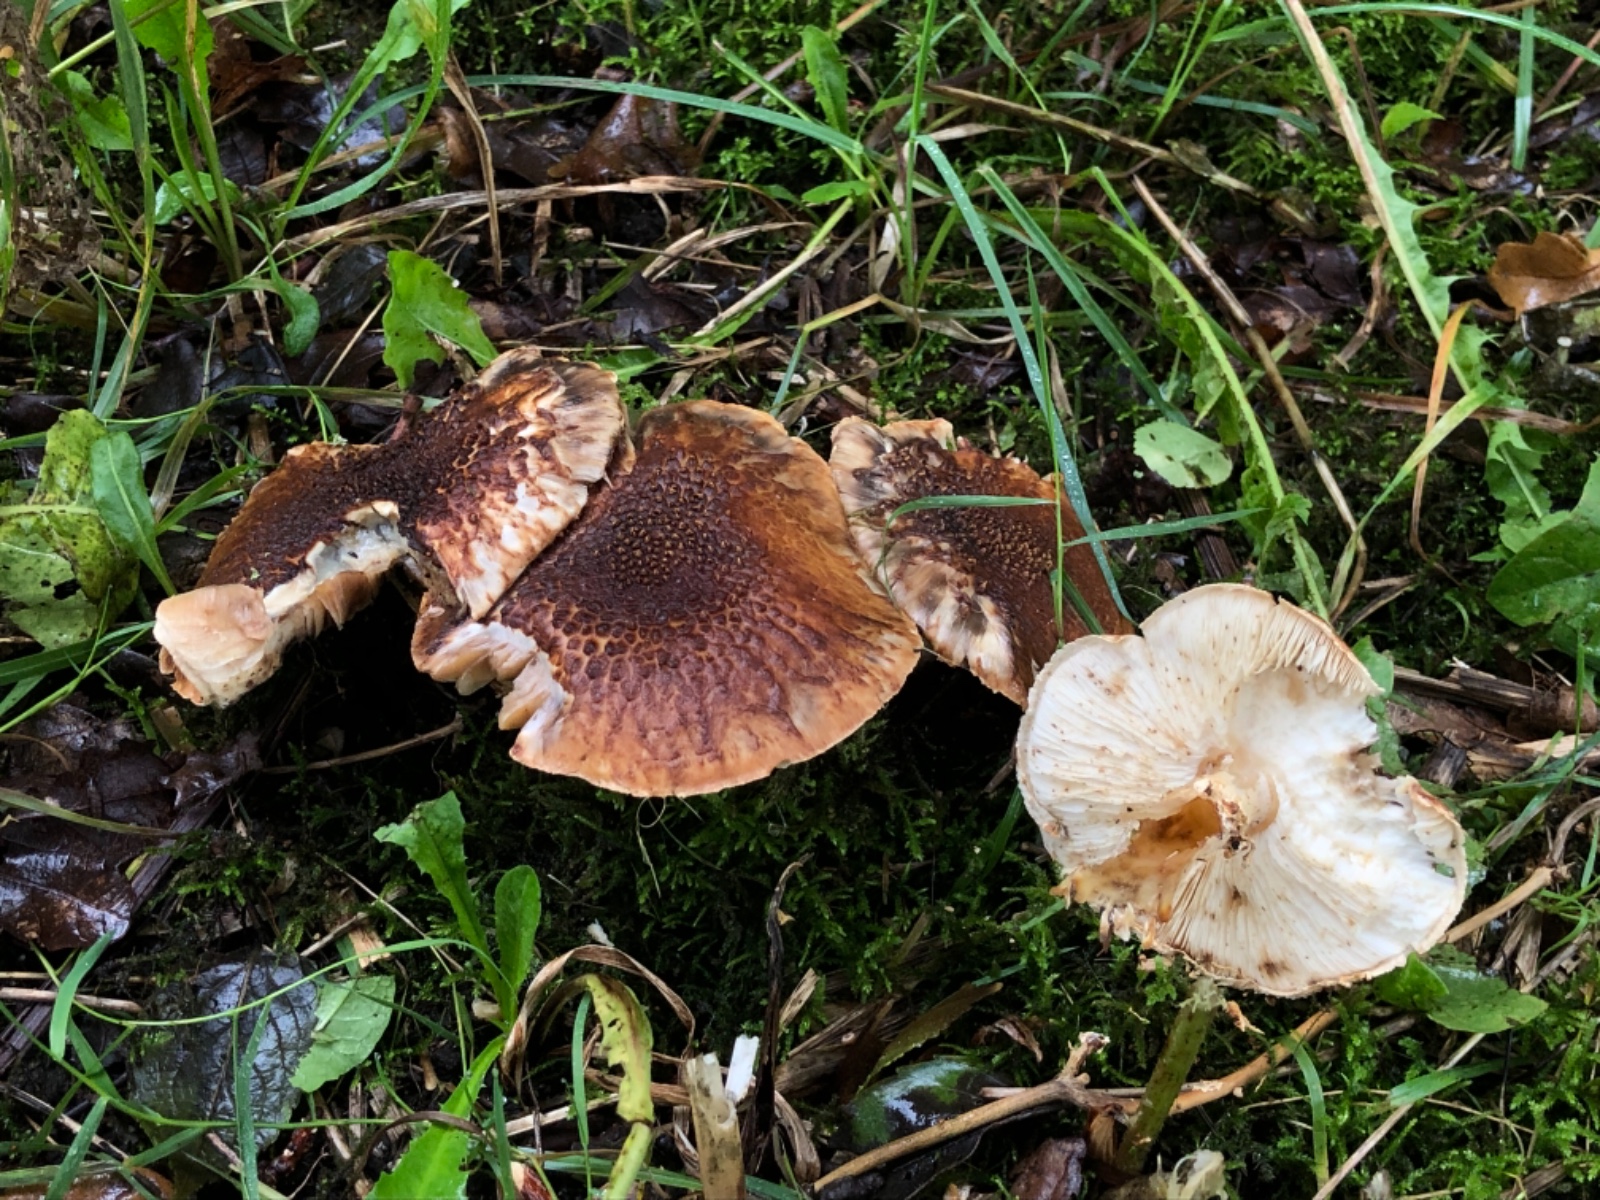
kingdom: Fungi
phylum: Basidiomycota
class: Agaricomycetes
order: Agaricales
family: Agaricaceae
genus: Echinoderma
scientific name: Echinoderma asperum
